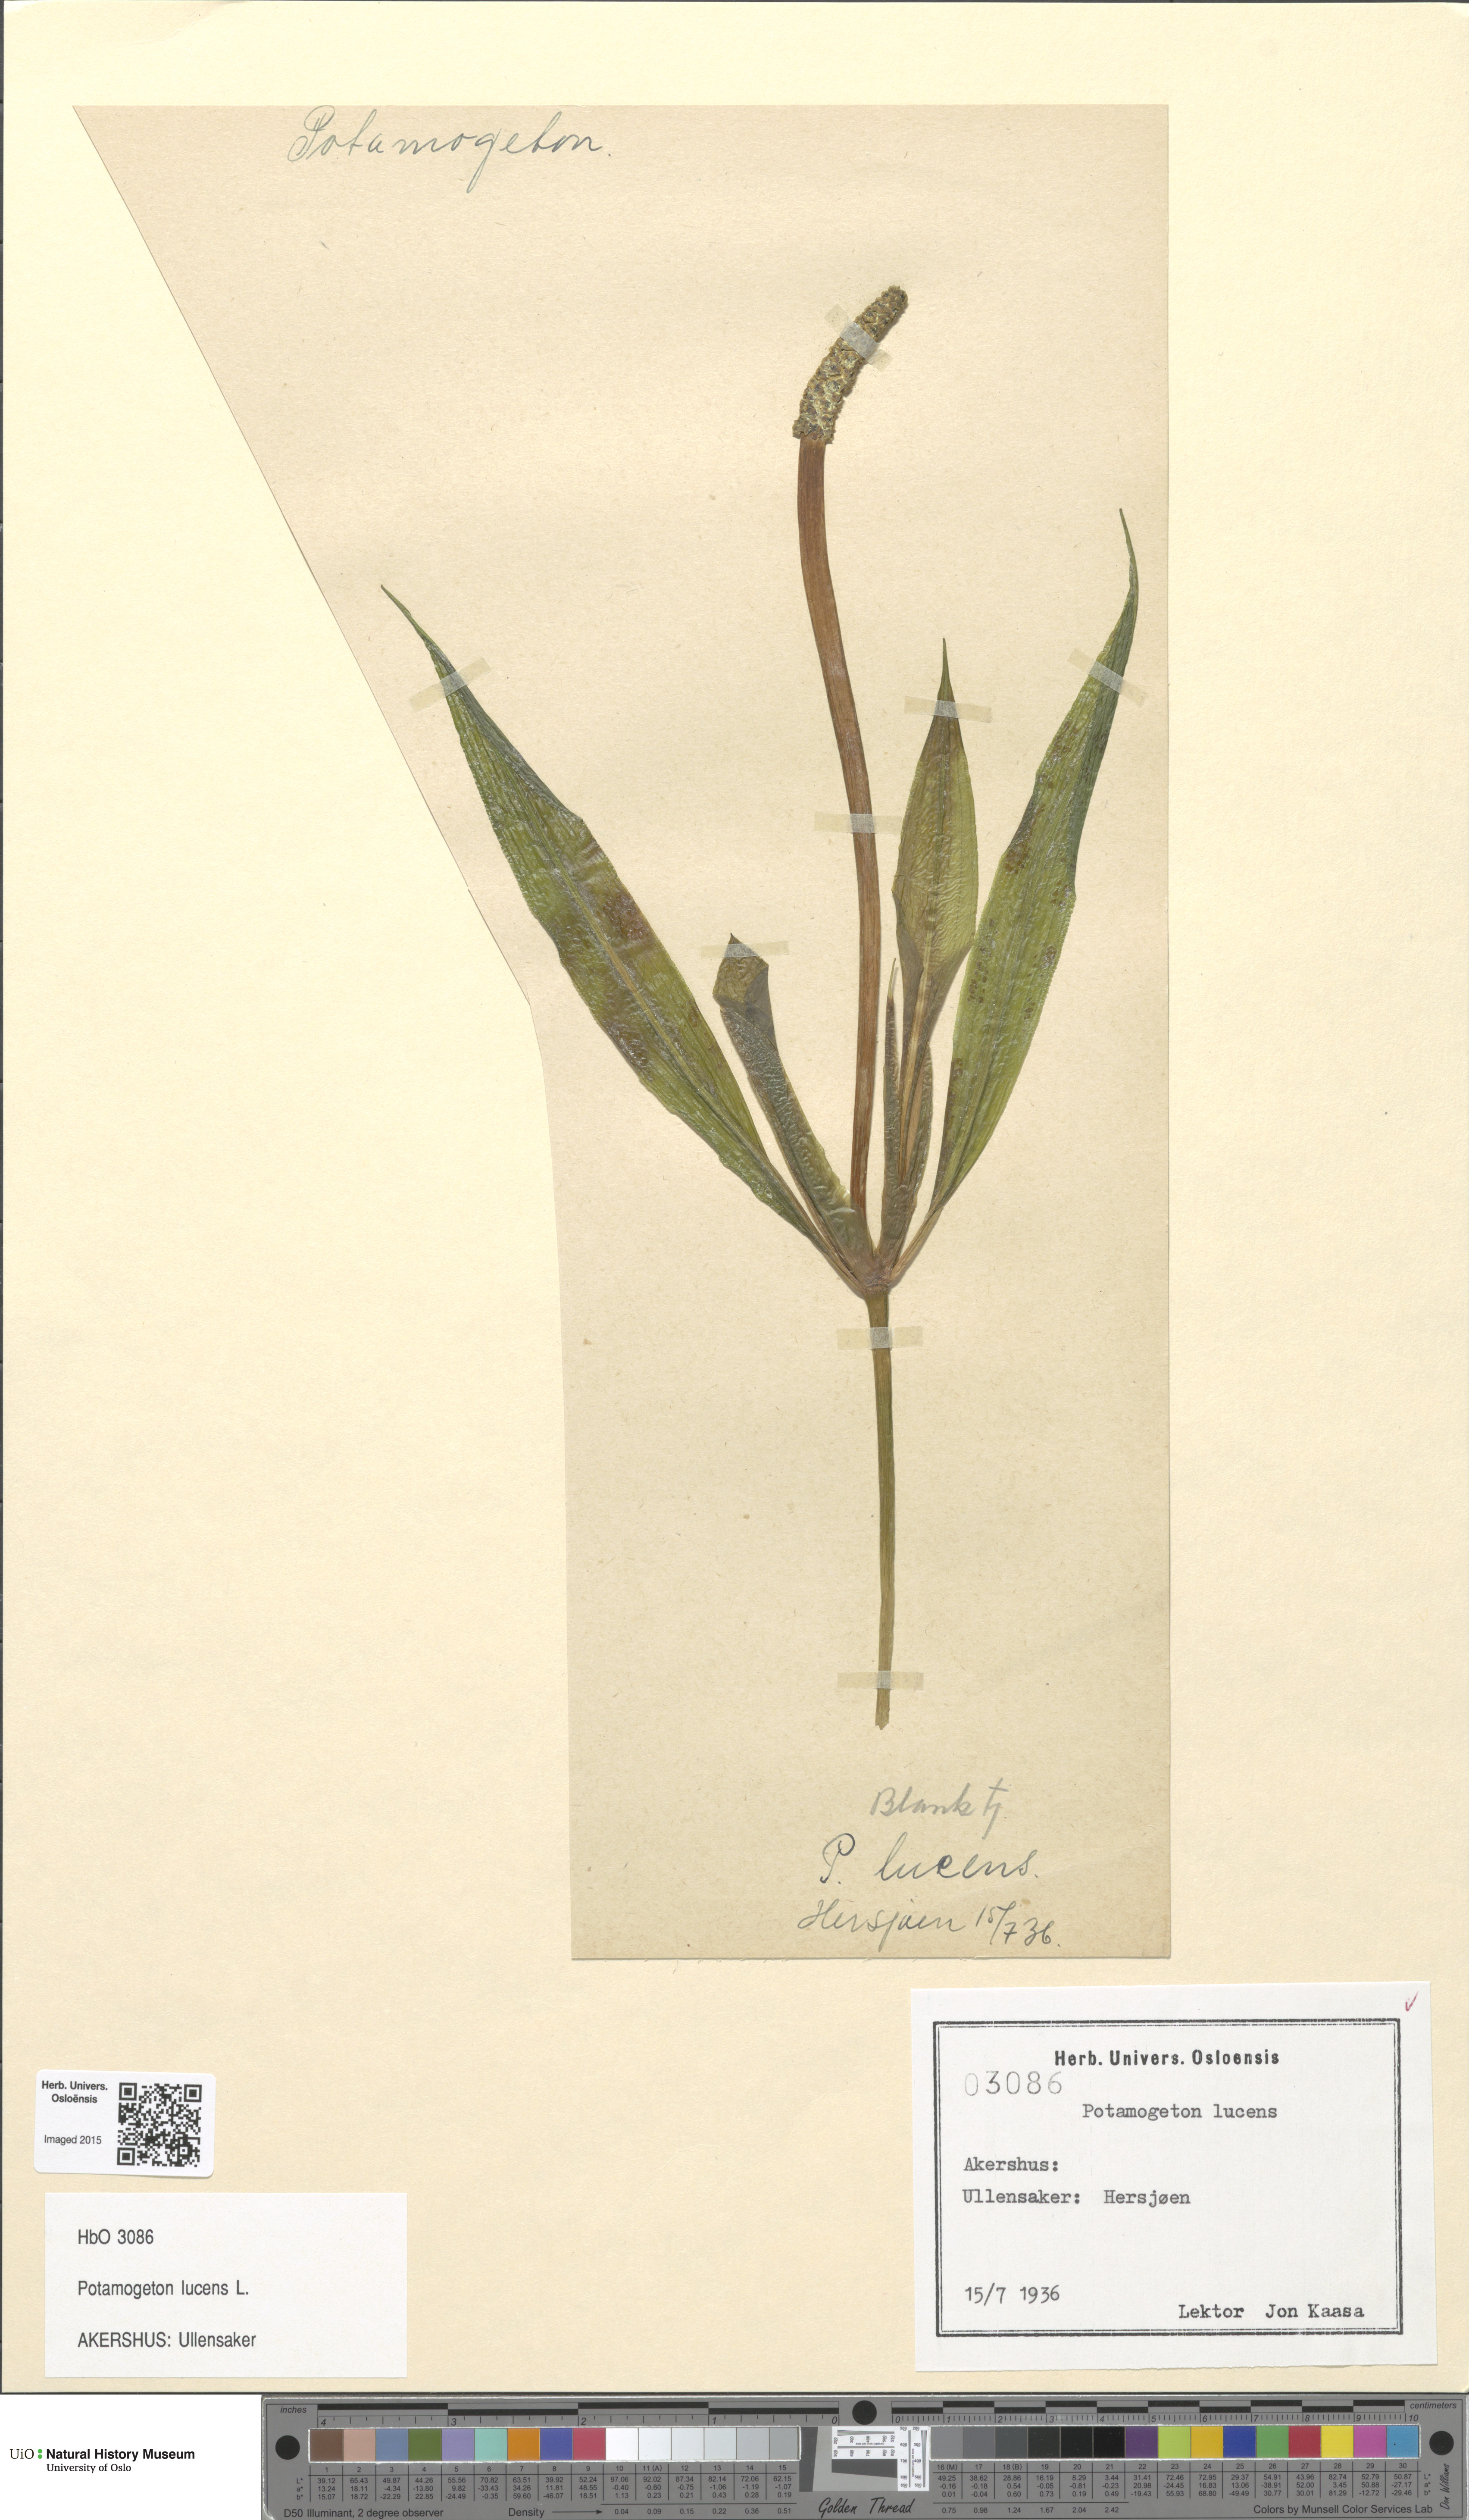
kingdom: Plantae
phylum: Tracheophyta
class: Liliopsida
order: Alismatales
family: Potamogetonaceae
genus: Potamogeton
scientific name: Potamogeton lucens
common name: Shining pondweed
